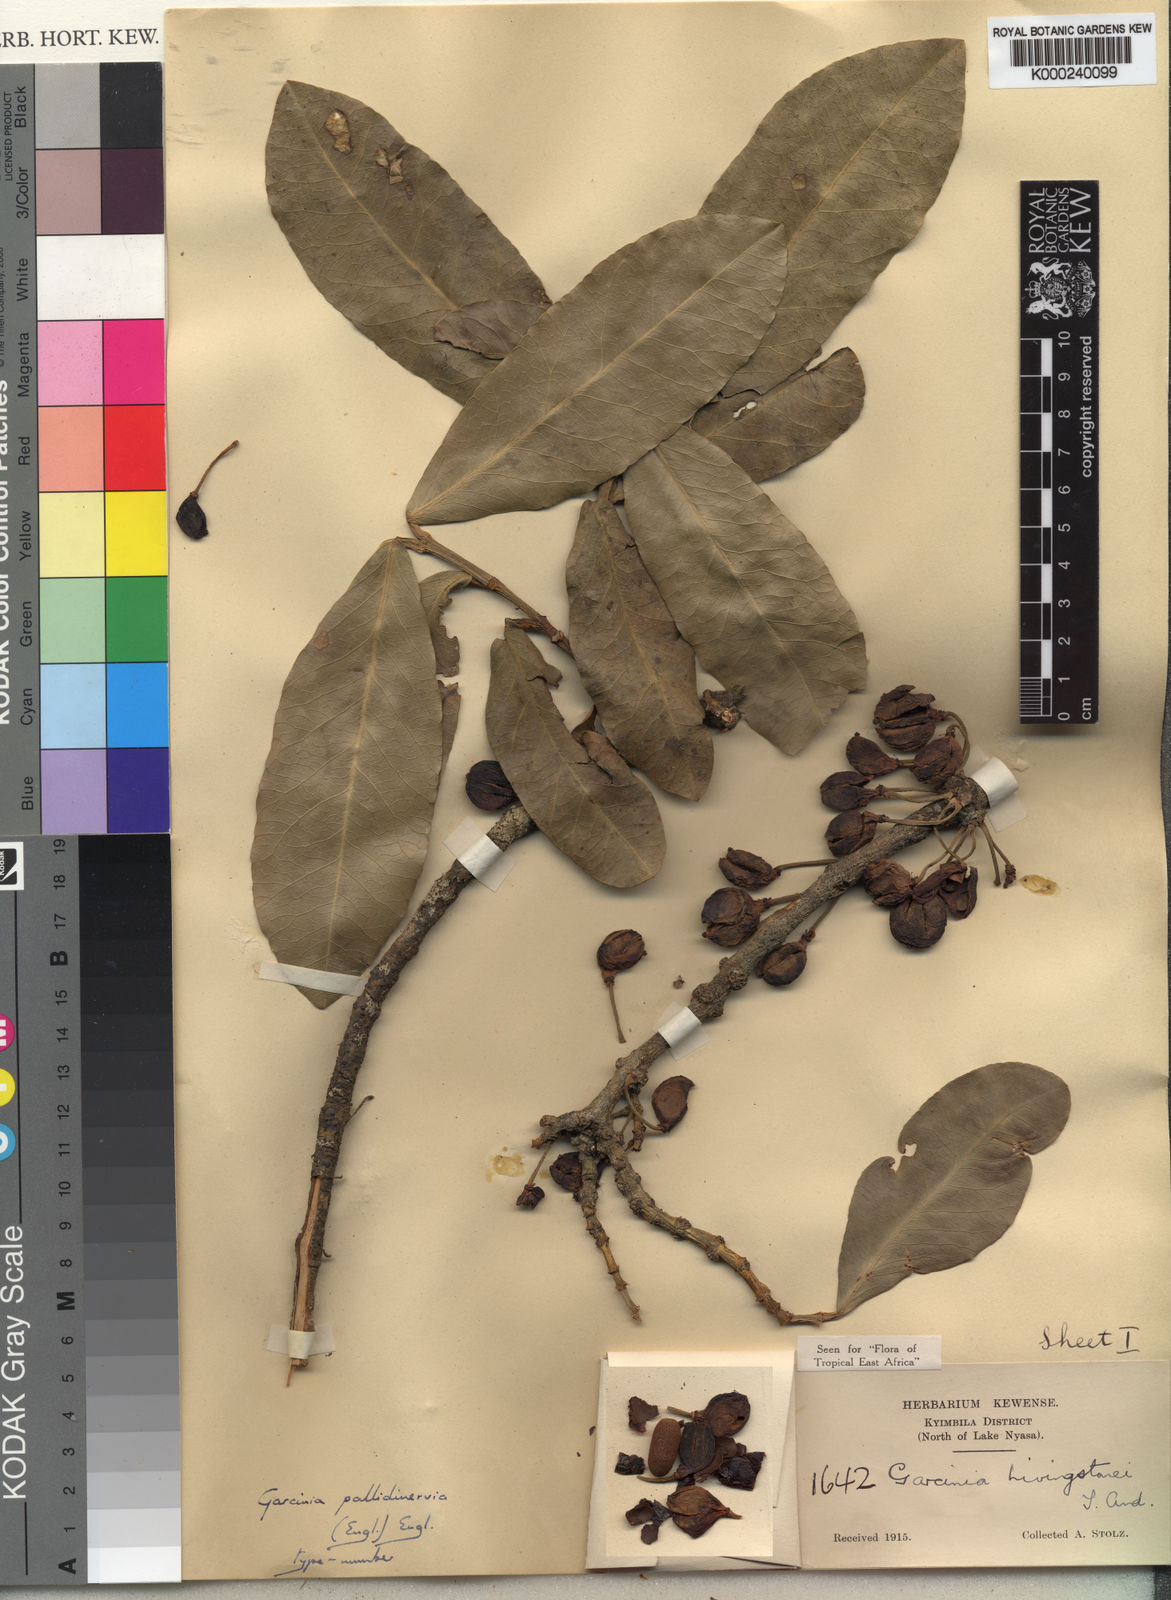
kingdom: Plantae
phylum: Tracheophyta
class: Magnoliopsida
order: Malpighiales
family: Clusiaceae
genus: Garcinia
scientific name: Garcinia livingstonei
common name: African mangosteen
